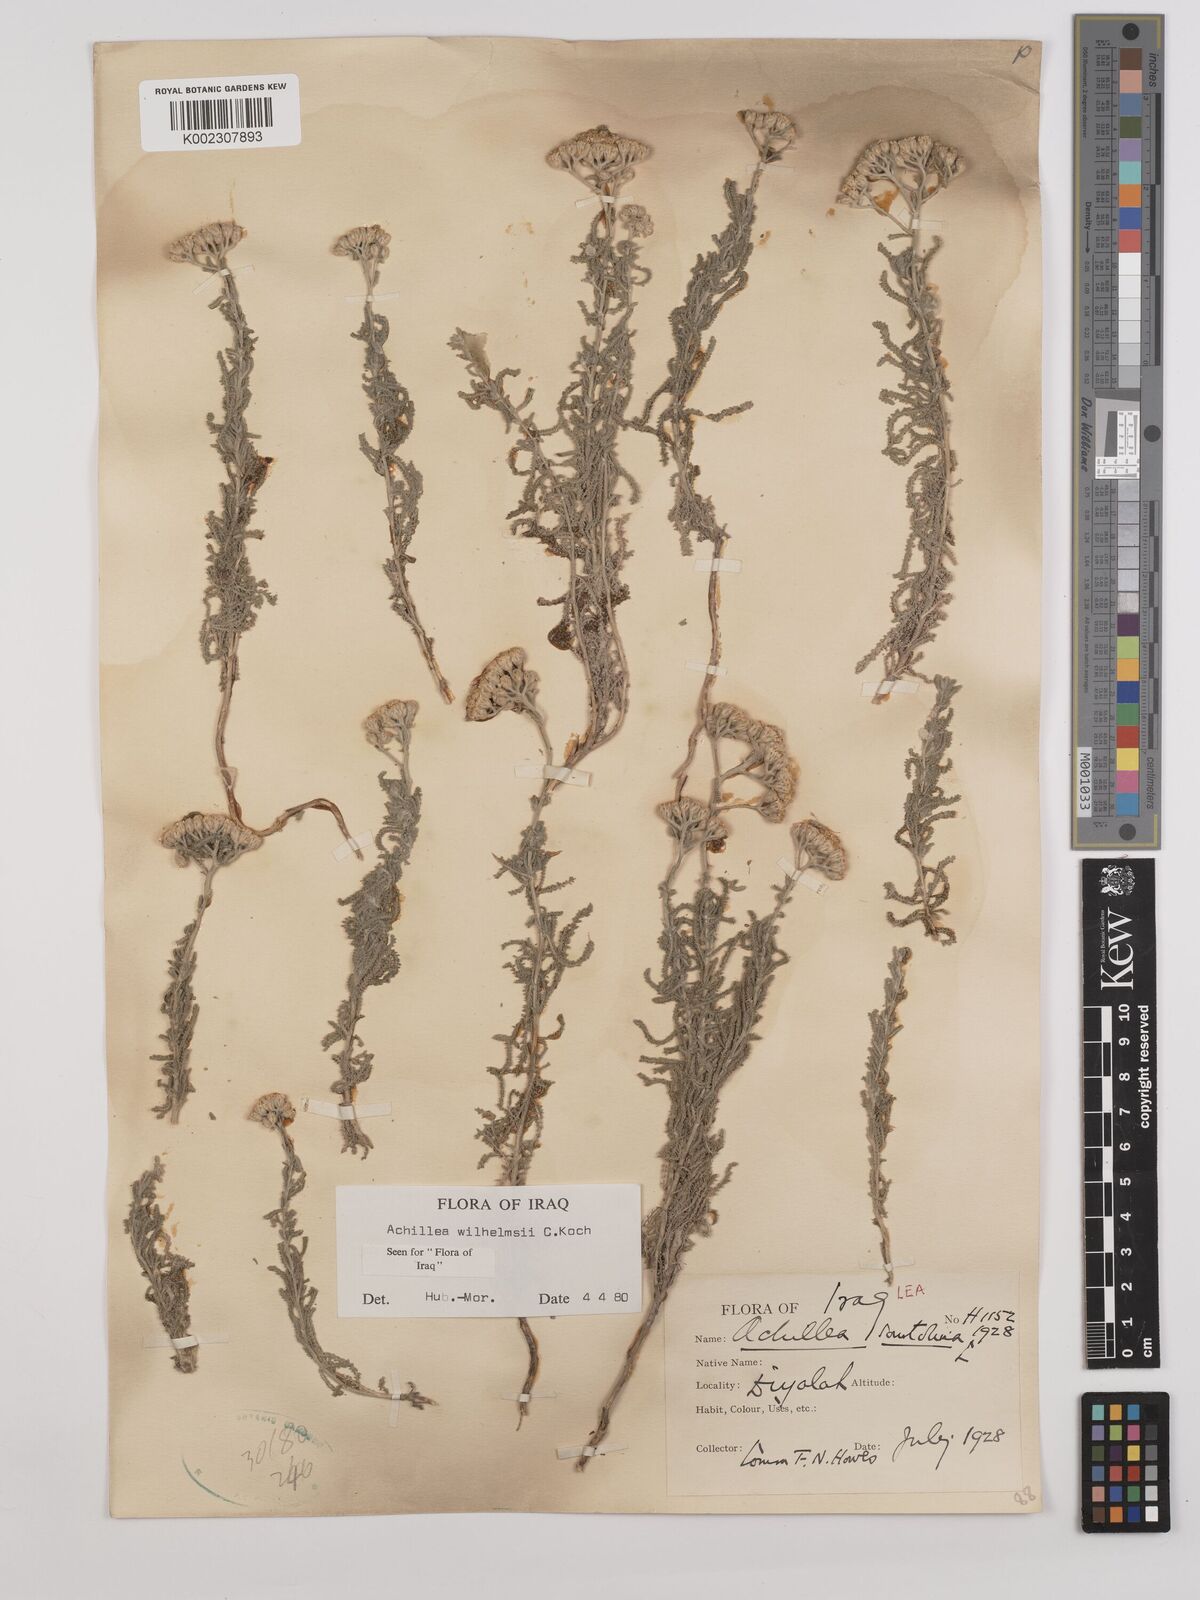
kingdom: Plantae
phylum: Tracheophyta
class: Magnoliopsida
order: Asterales
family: Asteraceae
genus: Achillea
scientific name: Achillea wilhelmsii
